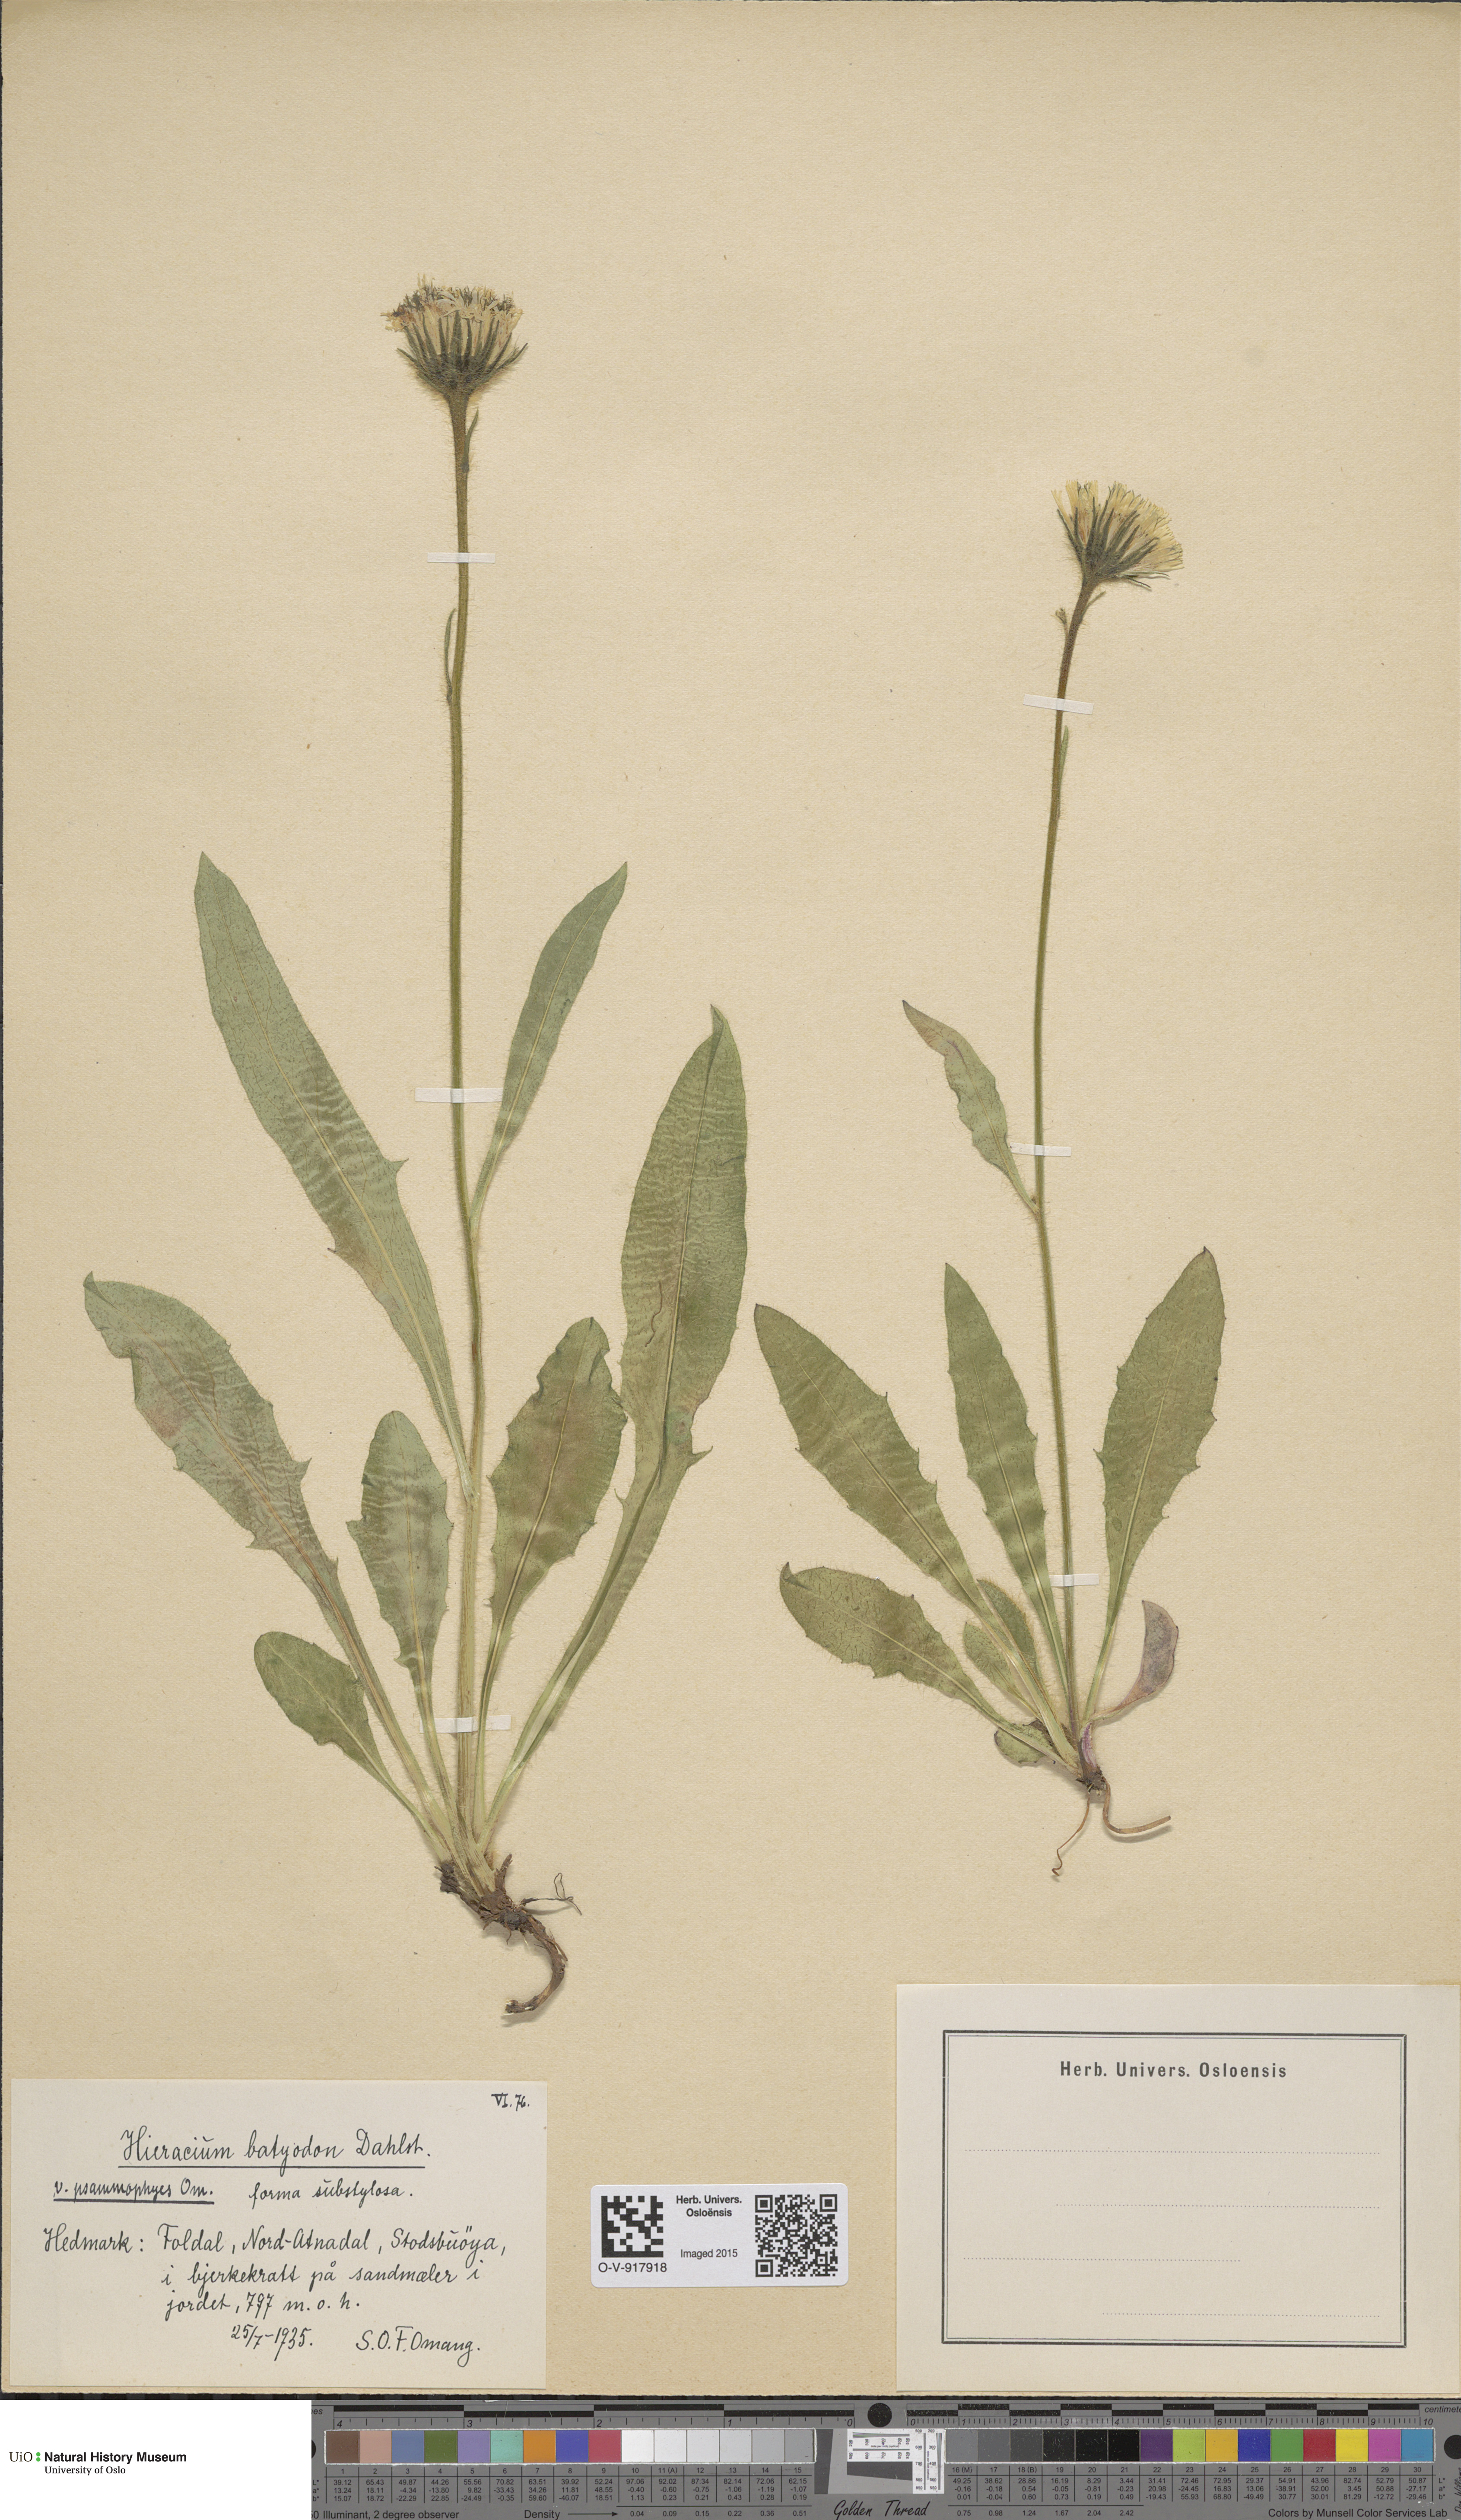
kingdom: Plantae
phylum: Tracheophyta
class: Magnoliopsida
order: Asterales
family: Asteraceae
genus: Hieracium
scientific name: Hieracium
